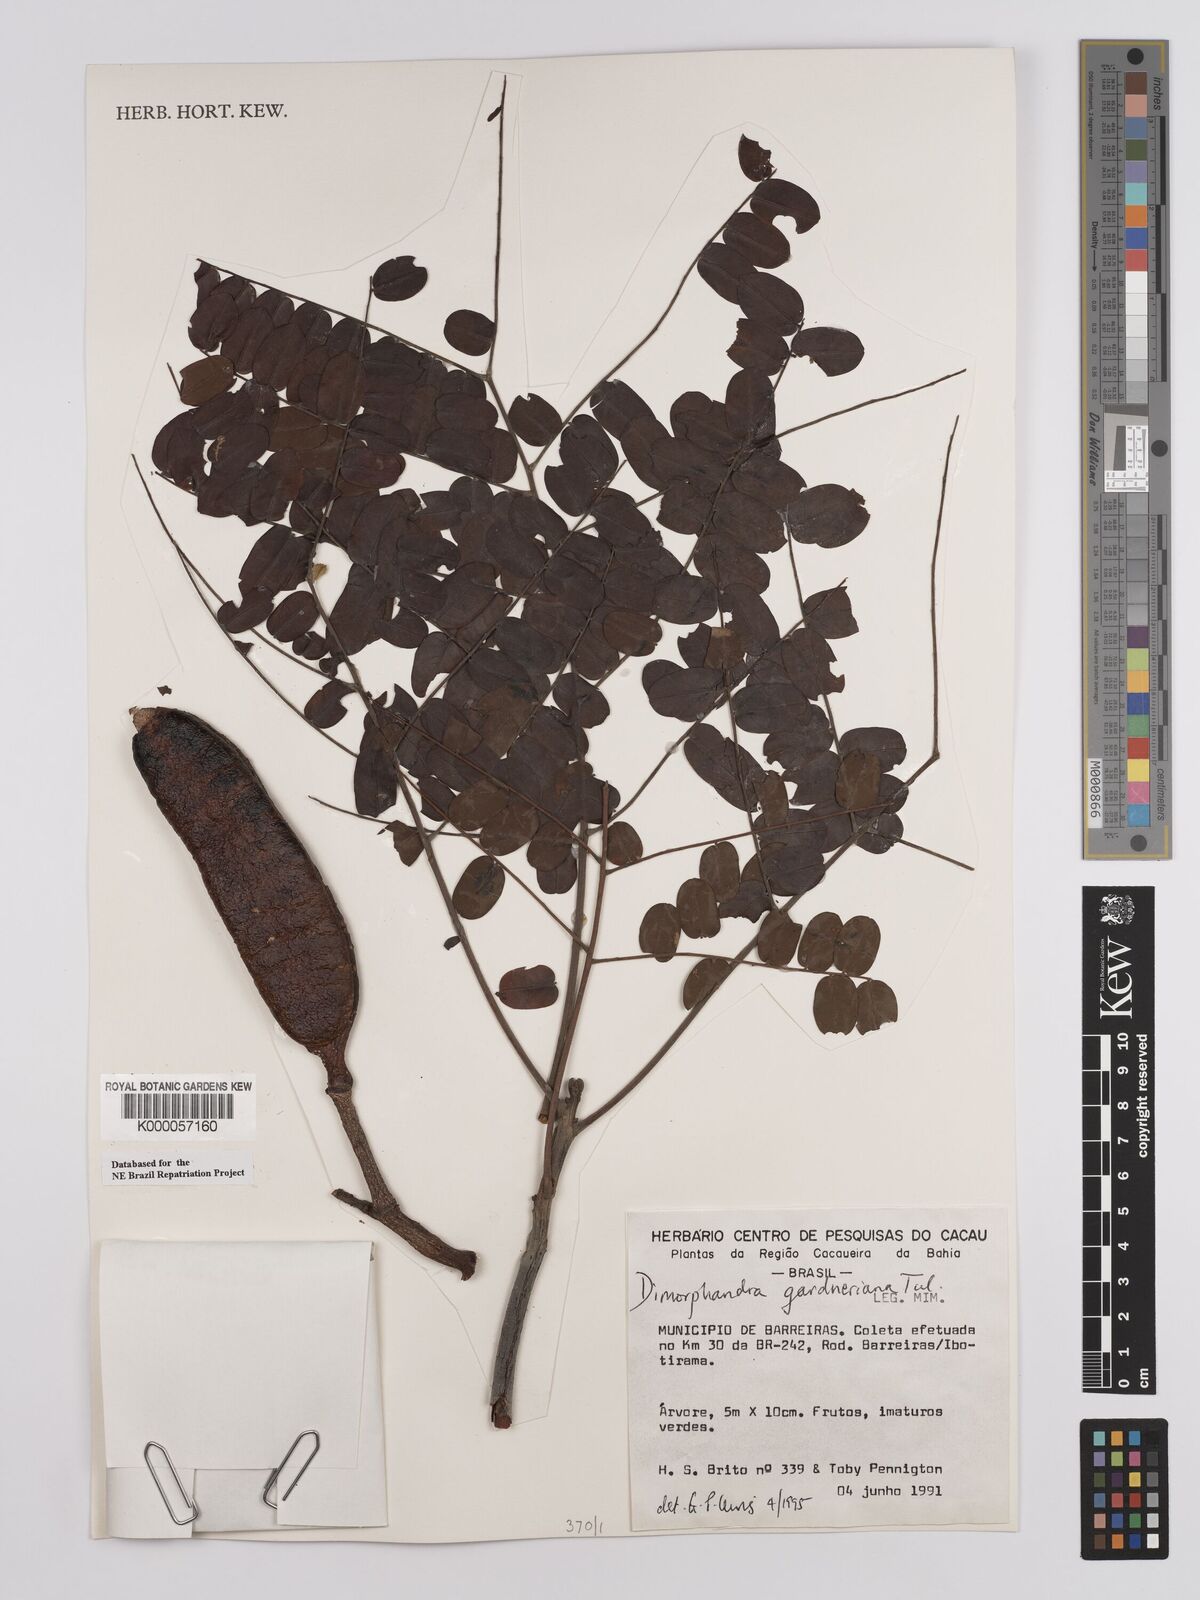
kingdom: Plantae
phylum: Tracheophyta
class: Magnoliopsida
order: Fabales
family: Fabaceae
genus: Dimorphandra
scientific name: Dimorphandra gardneriana
